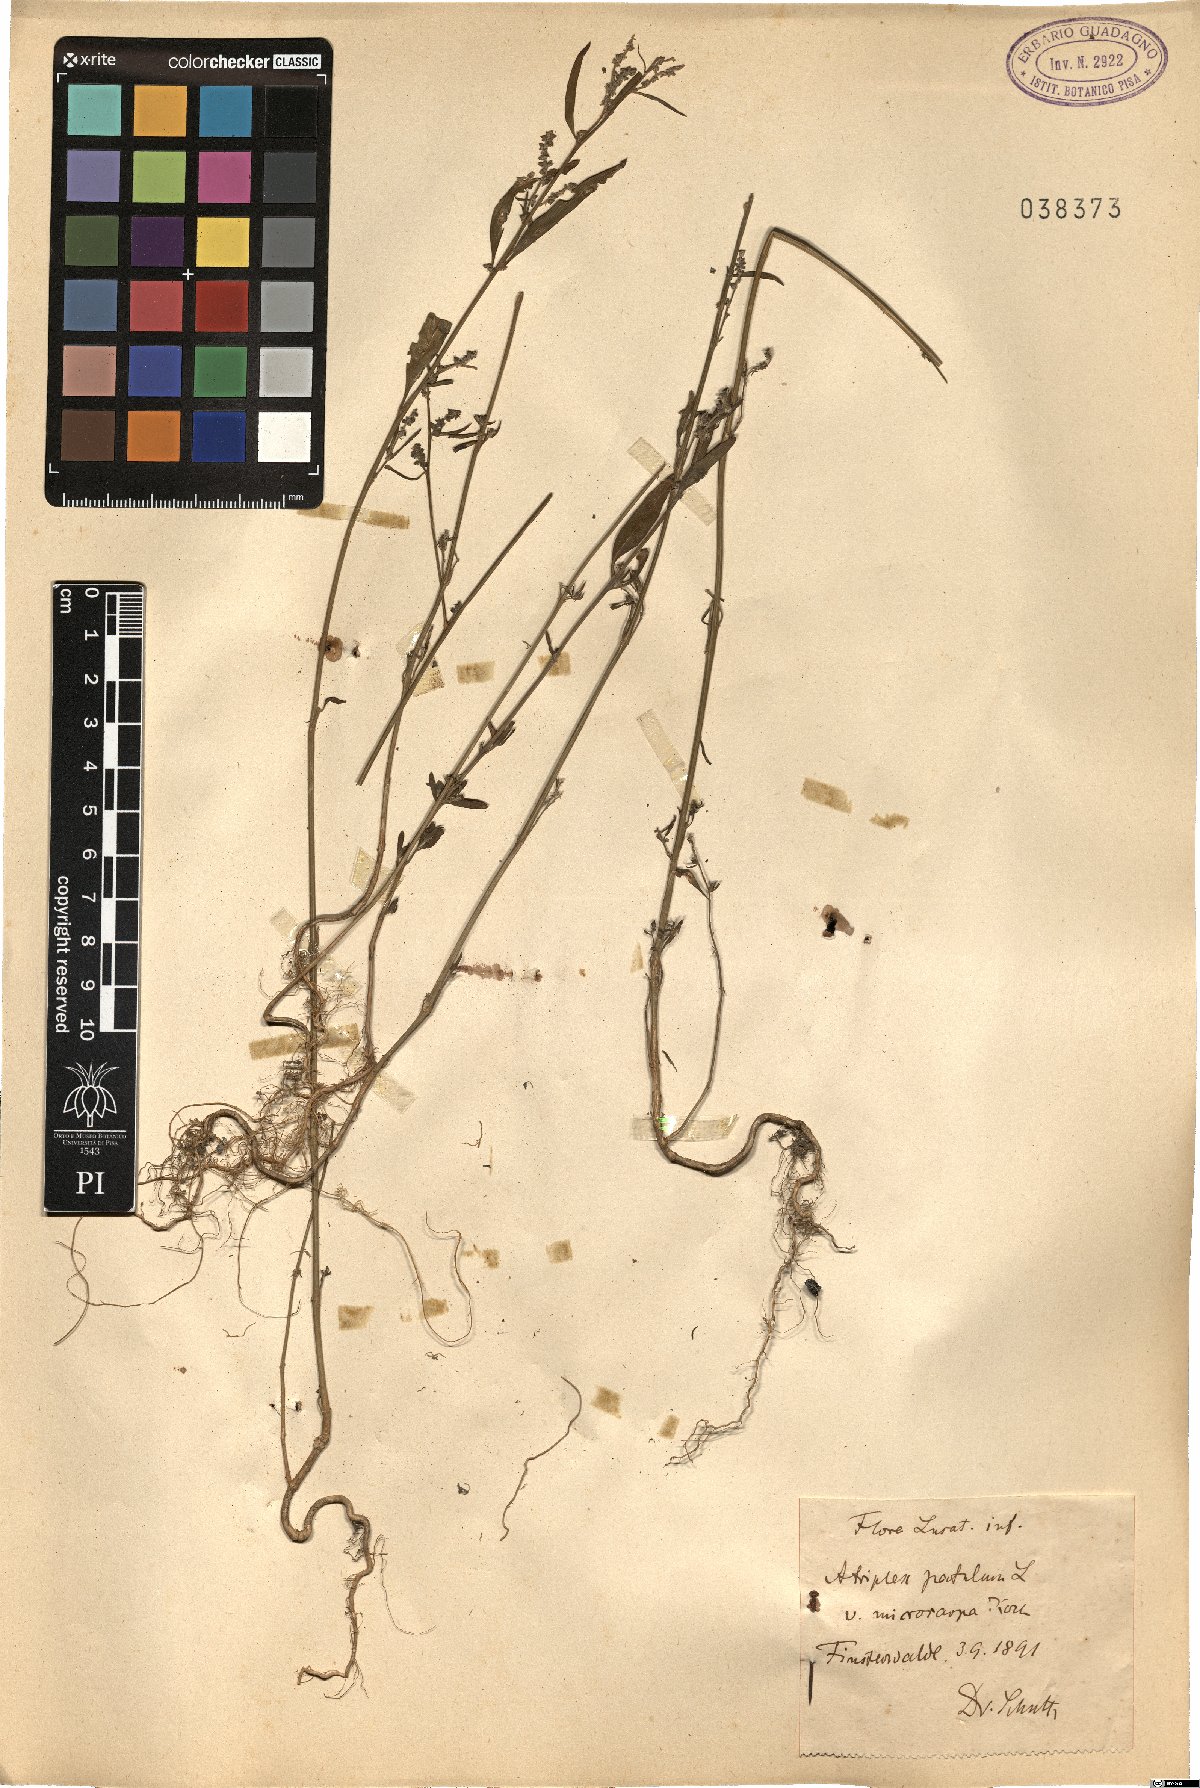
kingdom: Plantae
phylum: Tracheophyta
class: Magnoliopsida
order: Caryophyllales
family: Amaranthaceae
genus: Atriplex
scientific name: Atriplex patula
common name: Common orache
